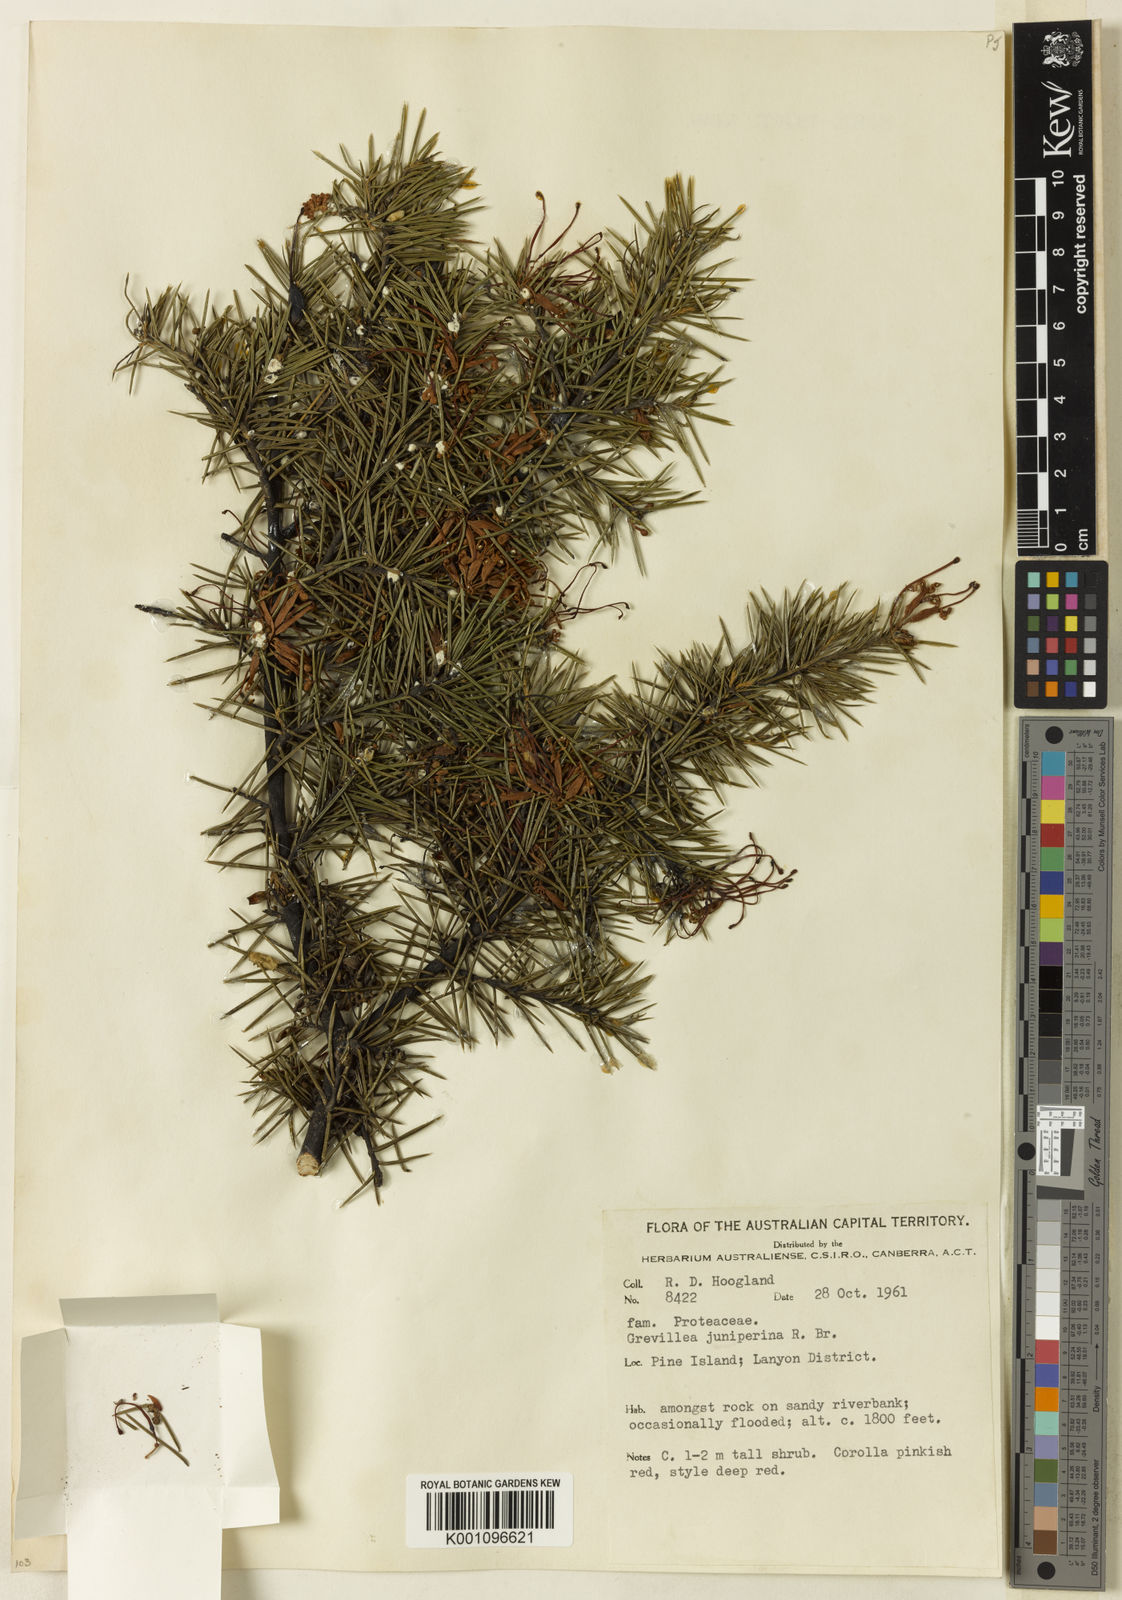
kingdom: Plantae
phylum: Tracheophyta
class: Magnoliopsida
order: Proteales
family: Proteaceae
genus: Grevillea
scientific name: Grevillea juniperina
